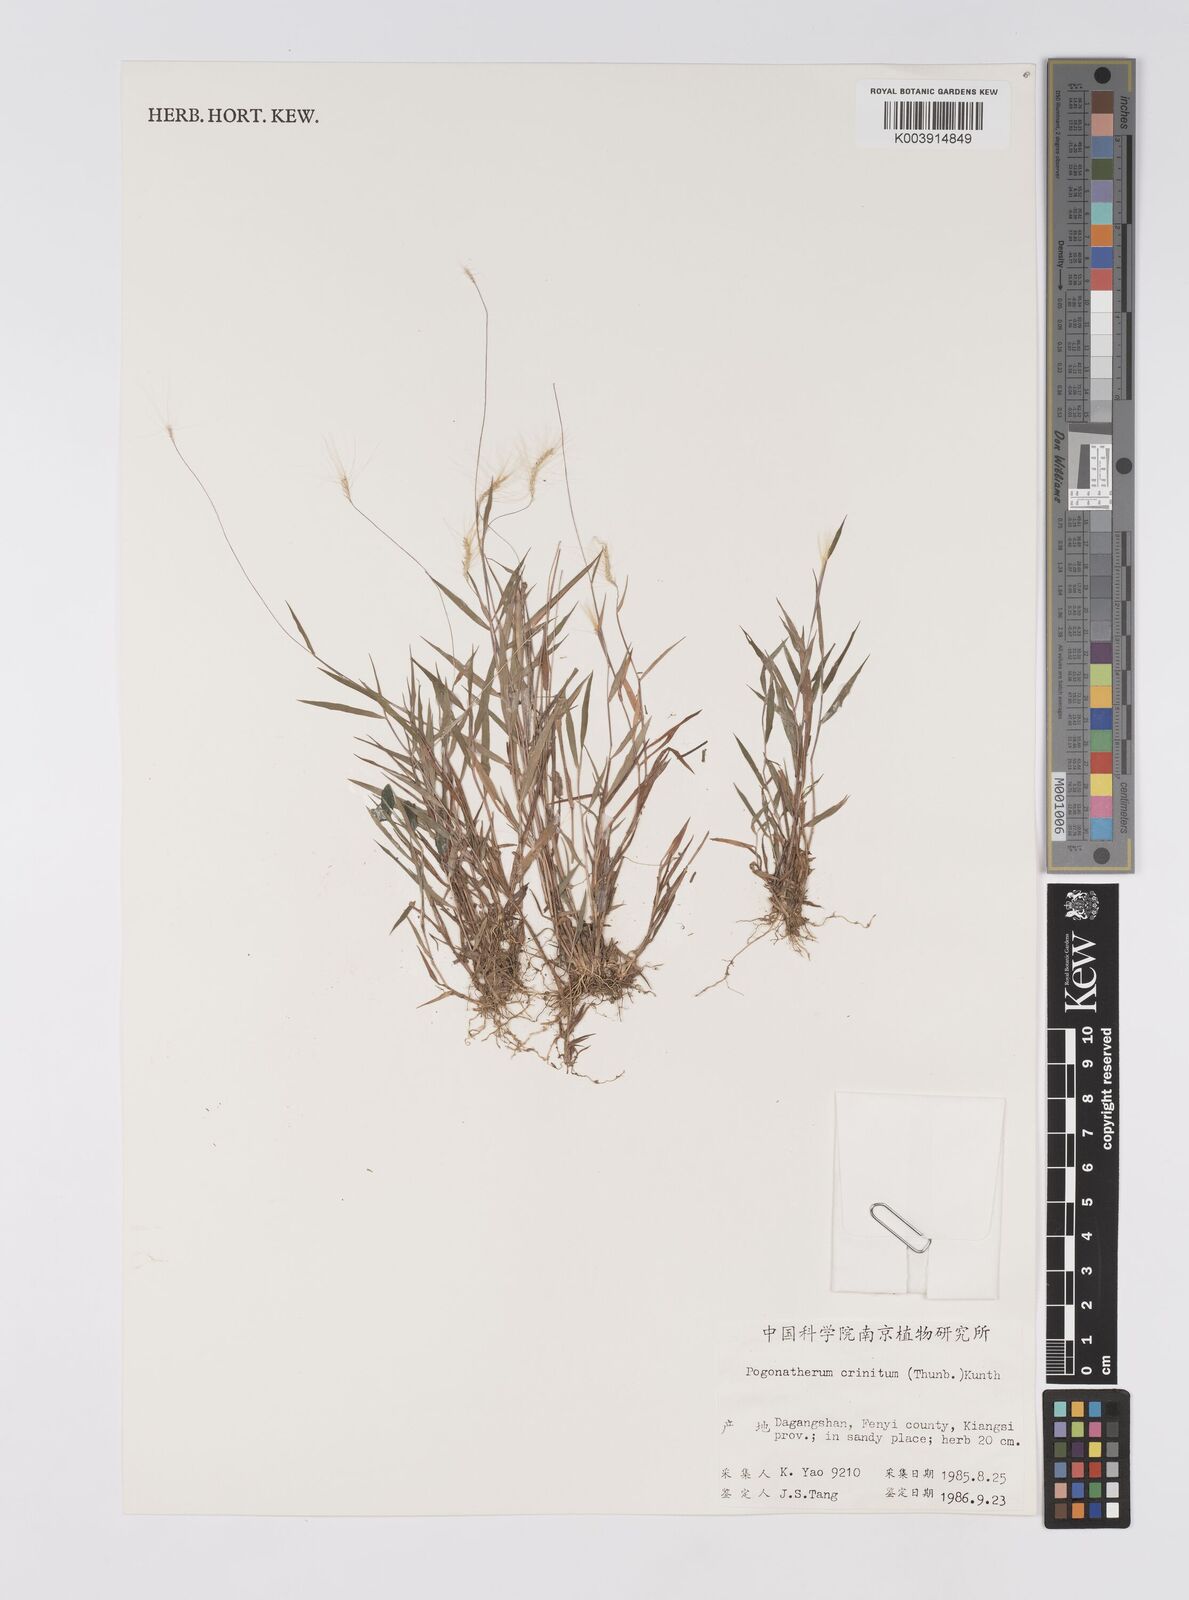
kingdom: Plantae
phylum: Tracheophyta
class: Liliopsida
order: Poales
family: Poaceae
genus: Pogonatherum
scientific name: Pogonatherum crinitum
